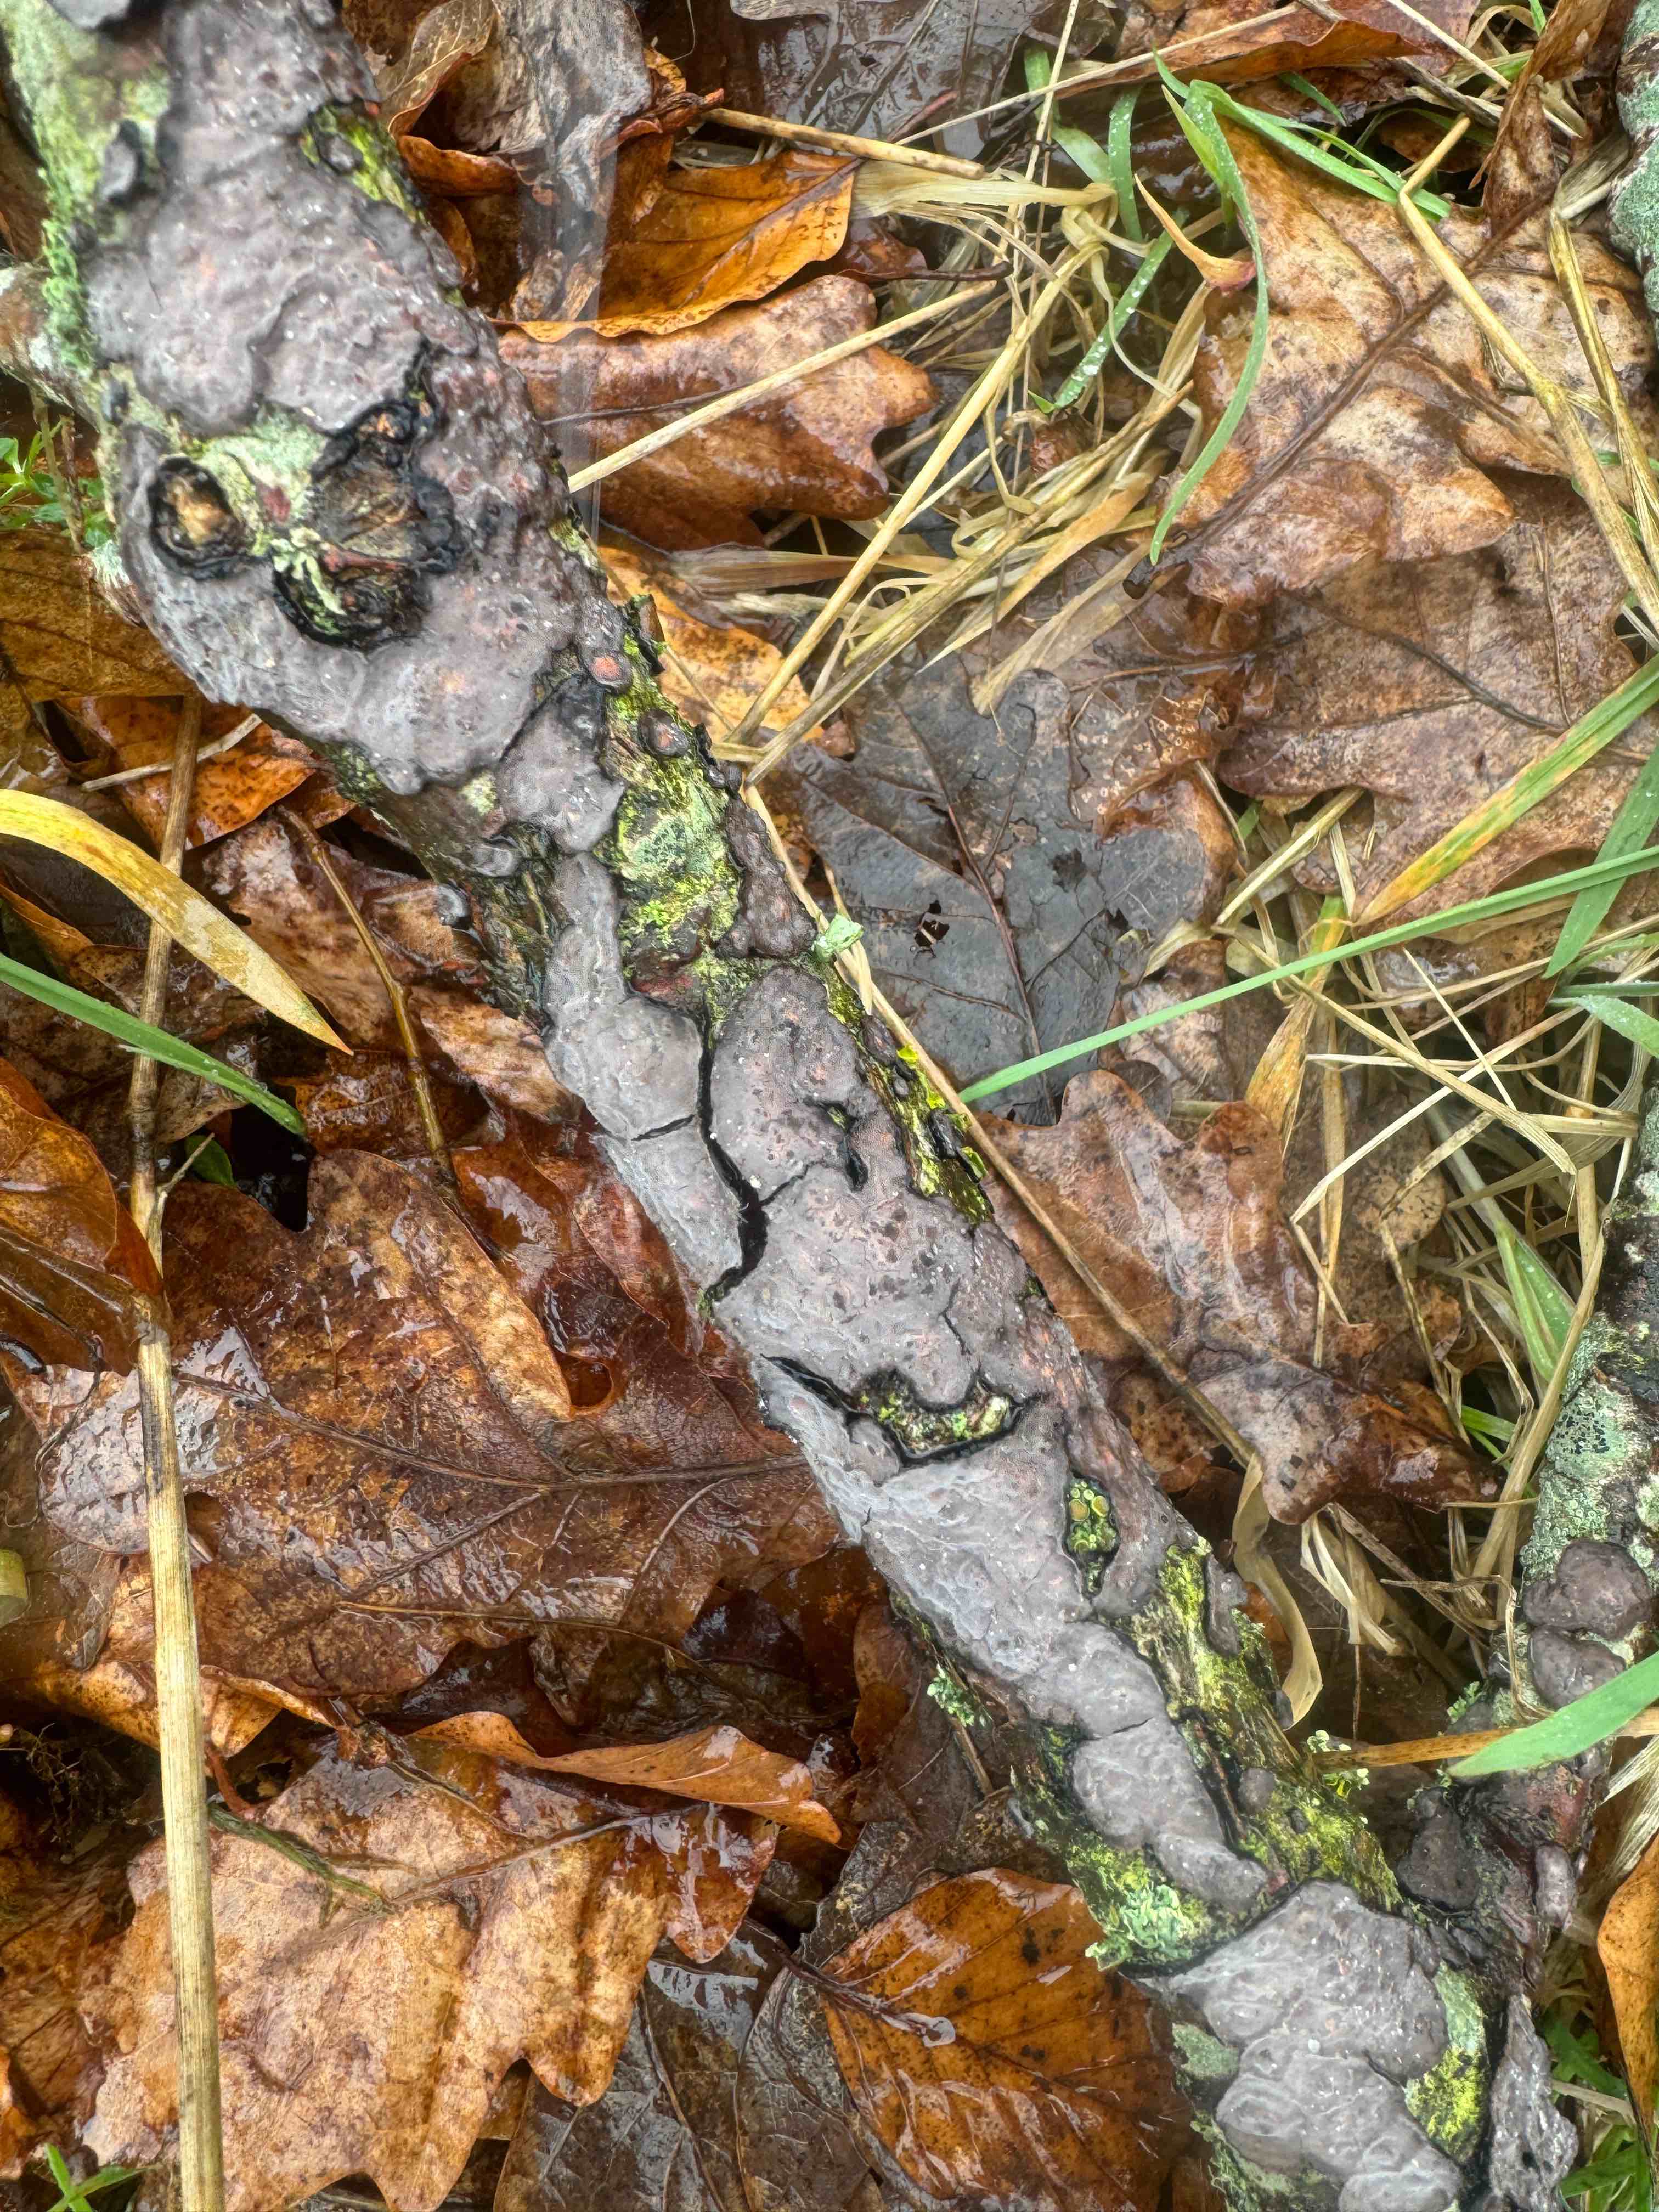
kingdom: Fungi
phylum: Basidiomycota
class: Agaricomycetes
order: Russulales
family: Peniophoraceae
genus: Peniophora
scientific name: Peniophora quercina
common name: ege-voksskind
